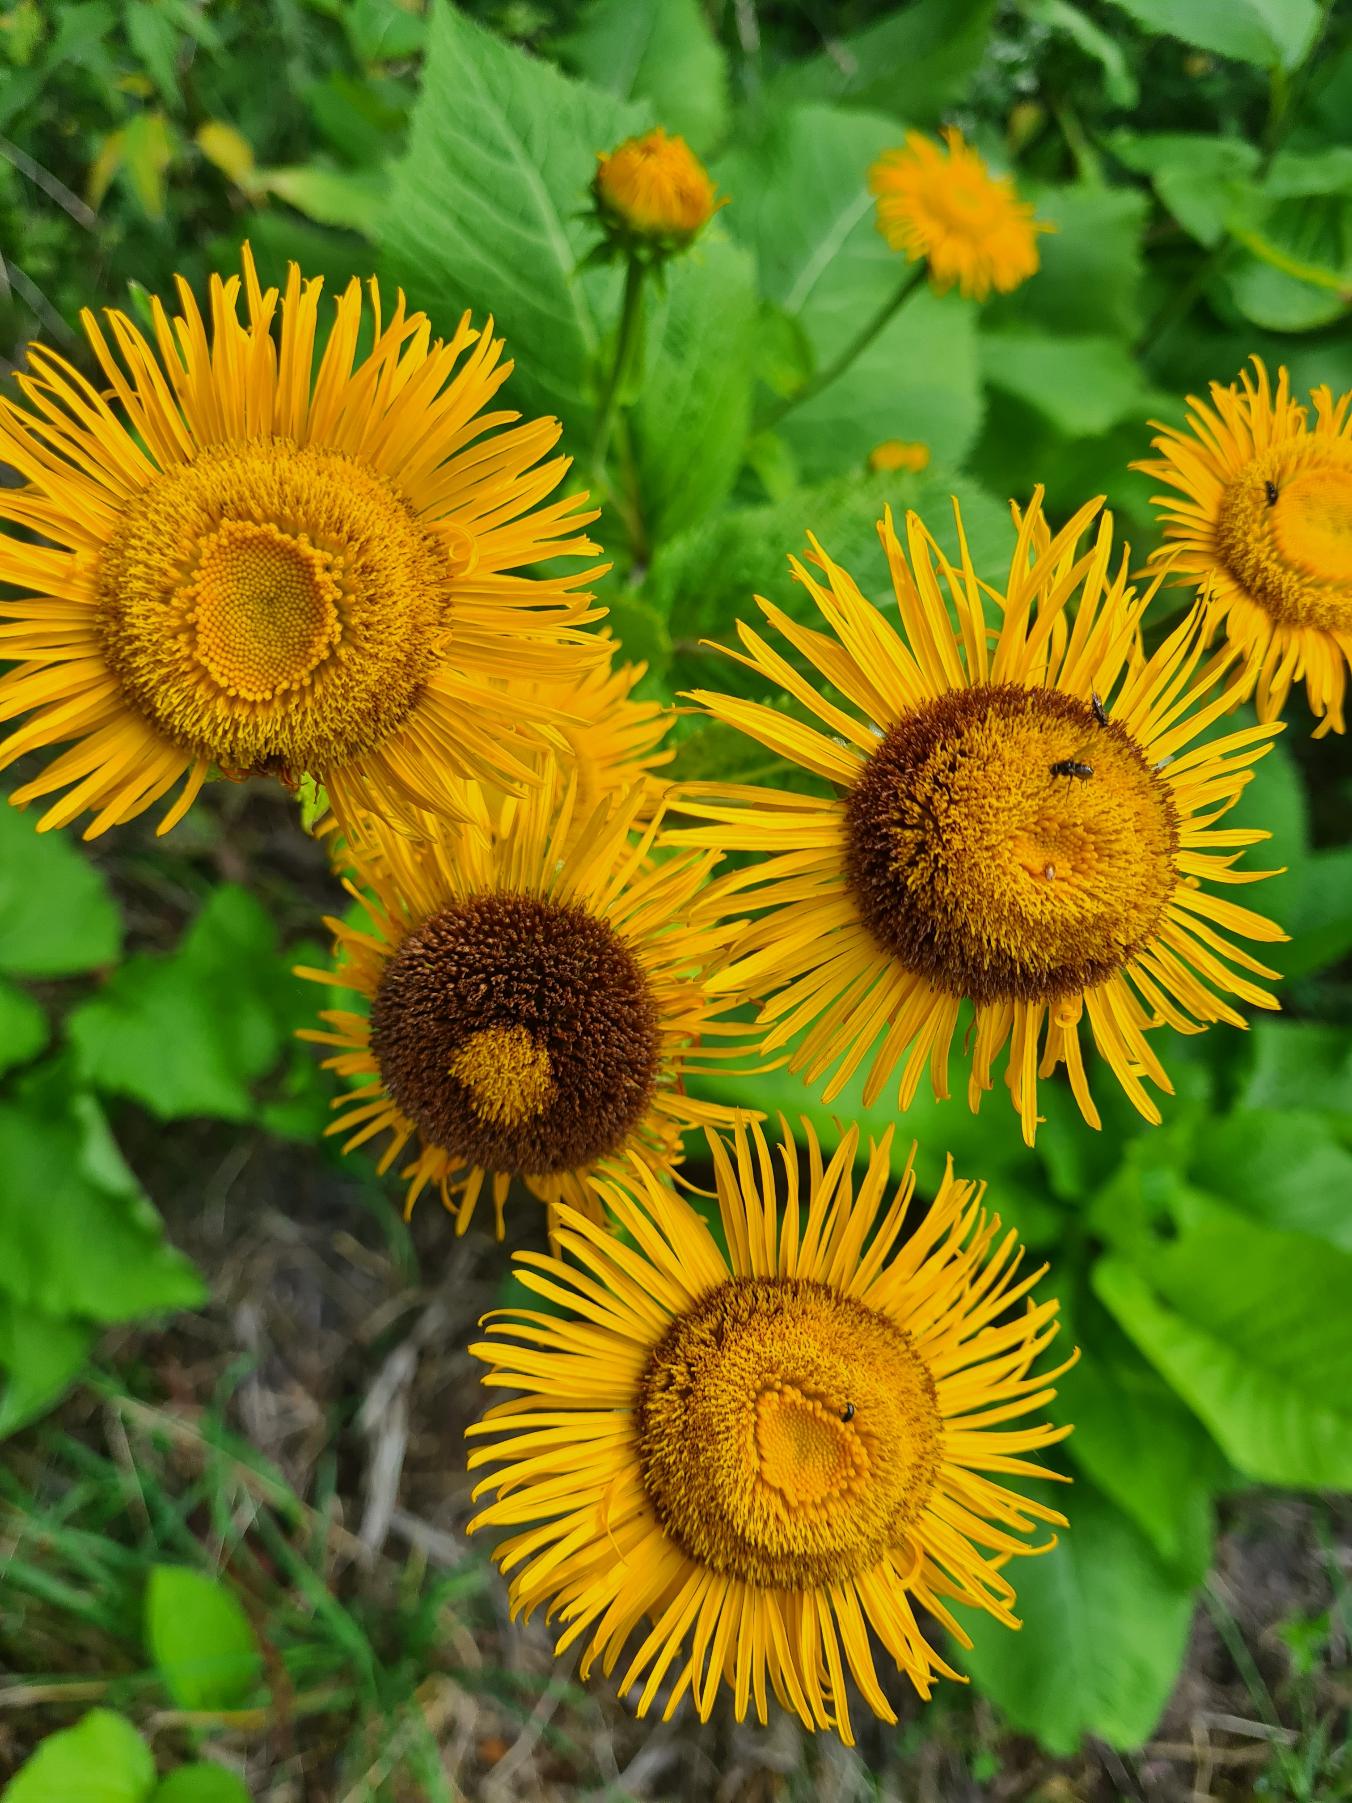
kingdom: Plantae
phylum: Tracheophyta
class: Magnoliopsida
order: Asterales
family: Asteraceae
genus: Telekia
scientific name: Telekia speciosa
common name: Tusindstråle
